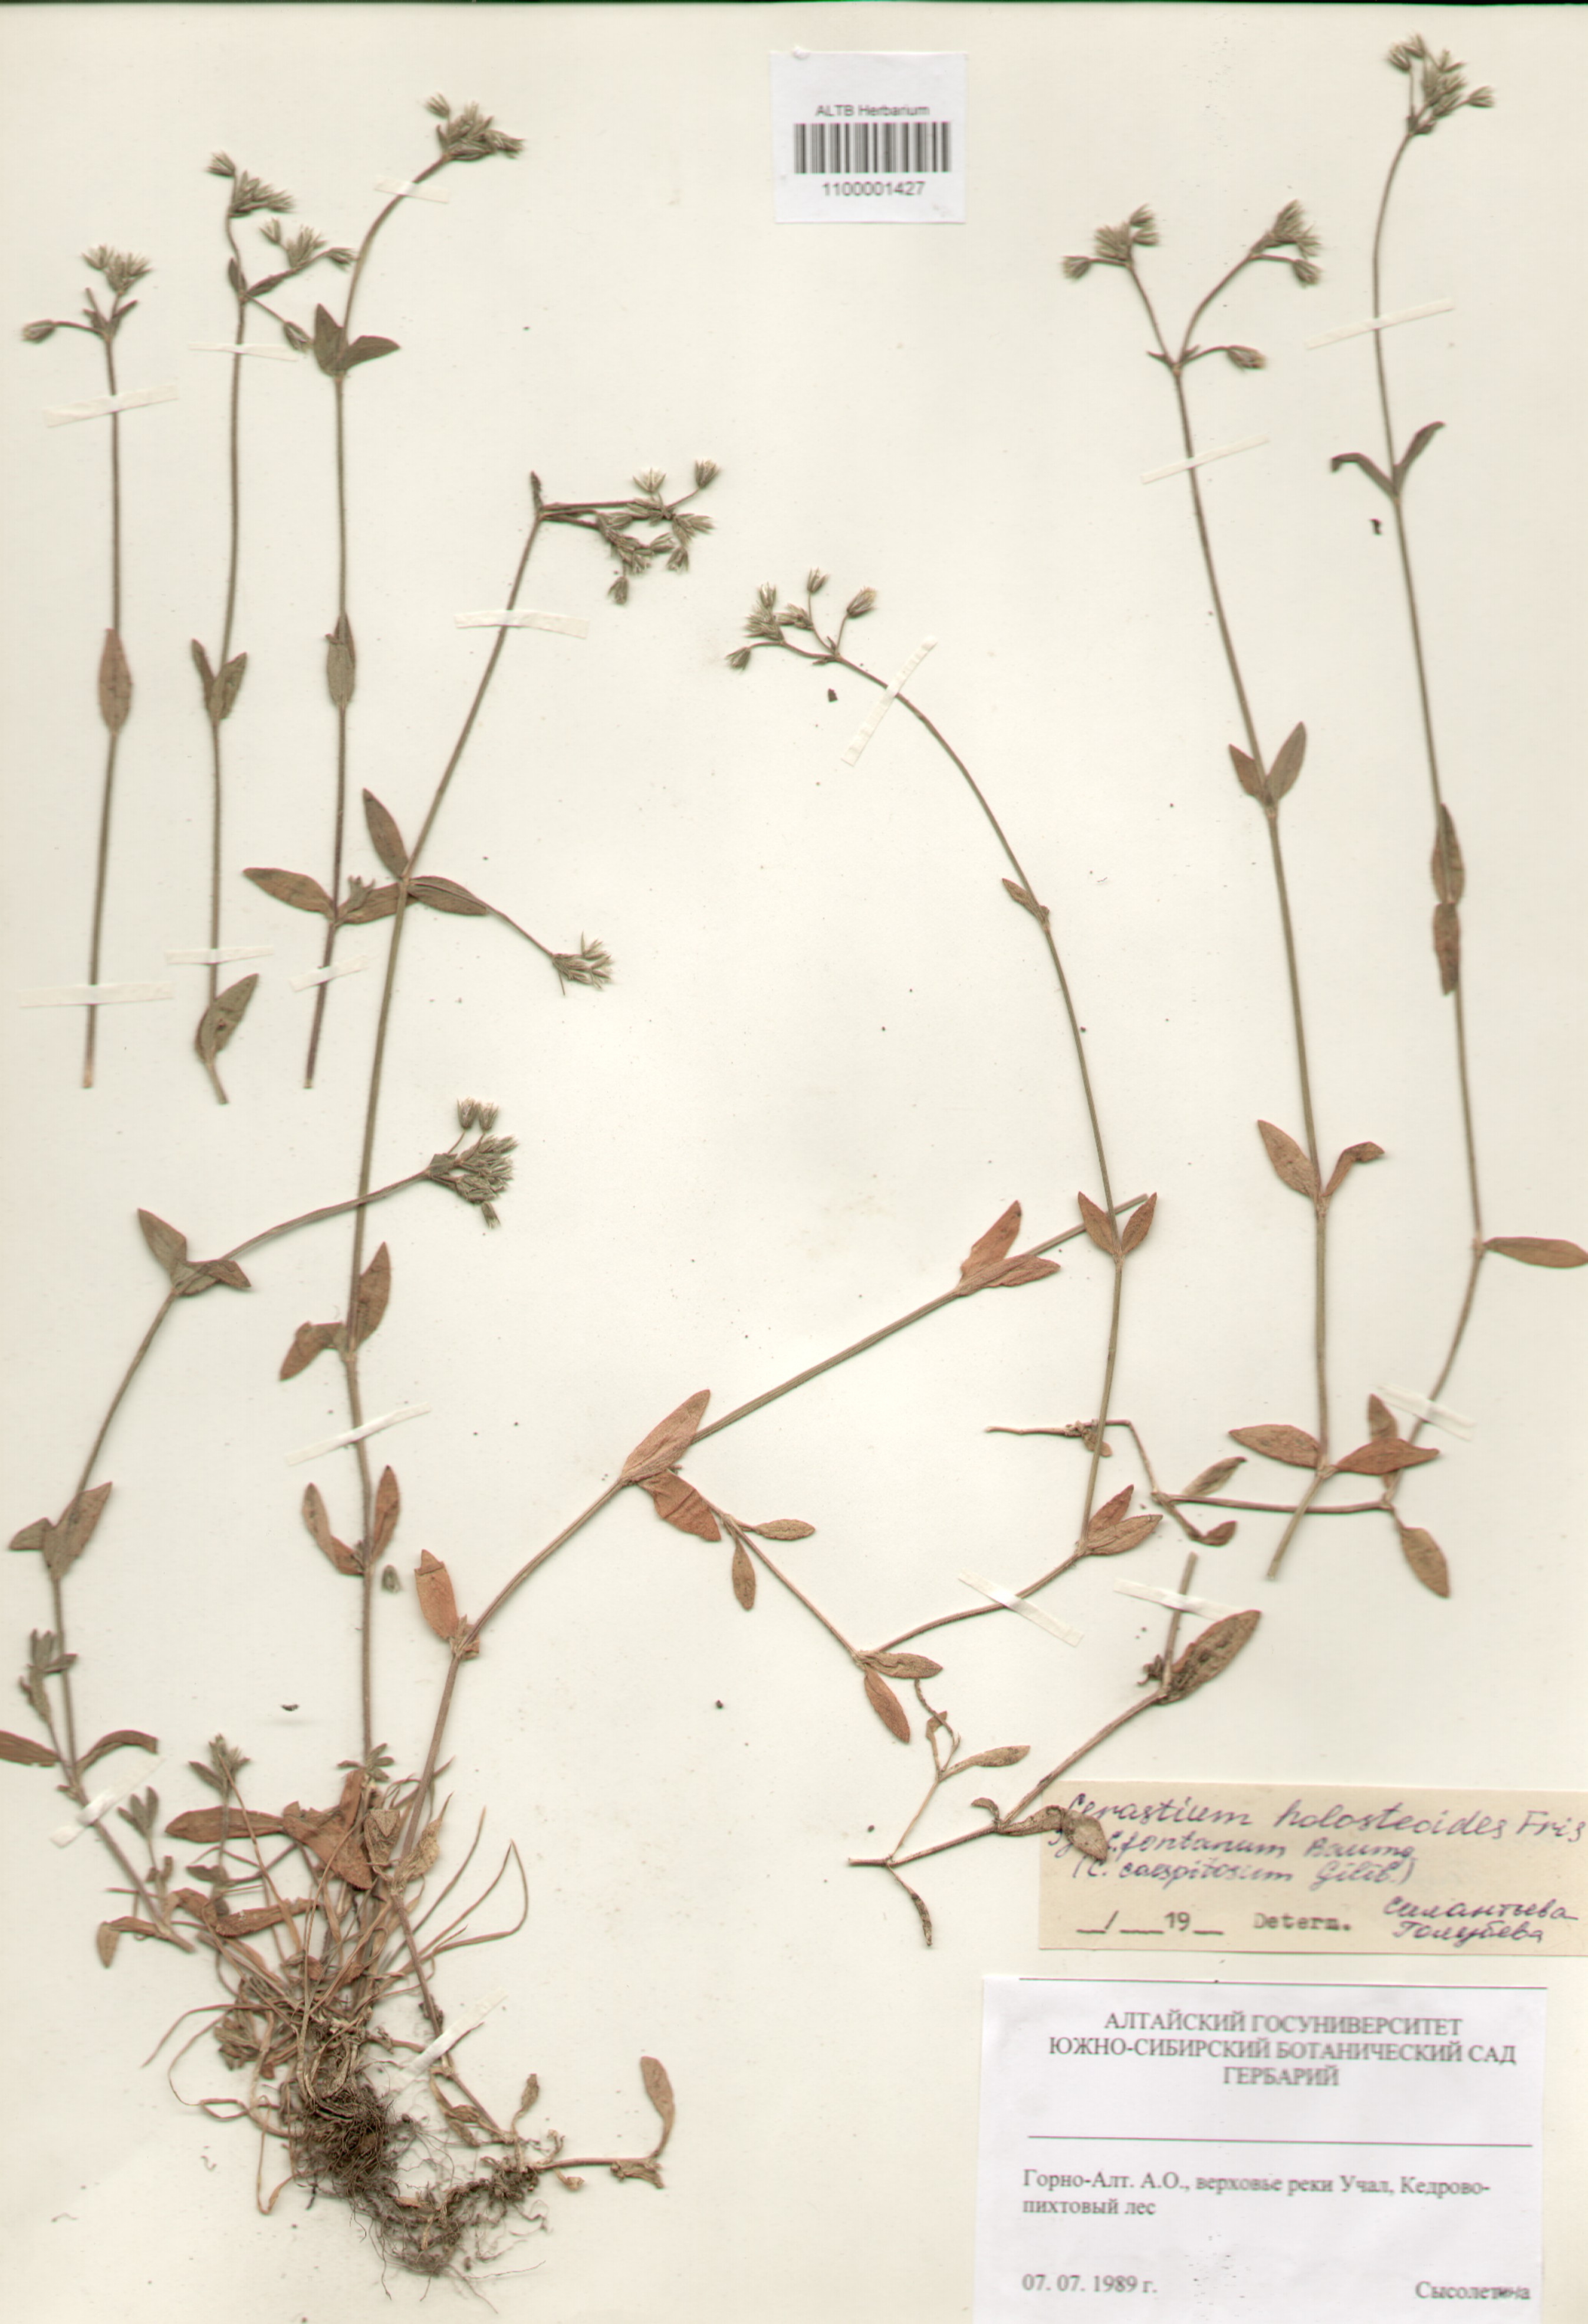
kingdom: Plantae
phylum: Tracheophyta
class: Magnoliopsida
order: Caryophyllales
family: Caryophyllaceae
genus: Cerastium
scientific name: Cerastium holosteoides
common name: Big chickweed
